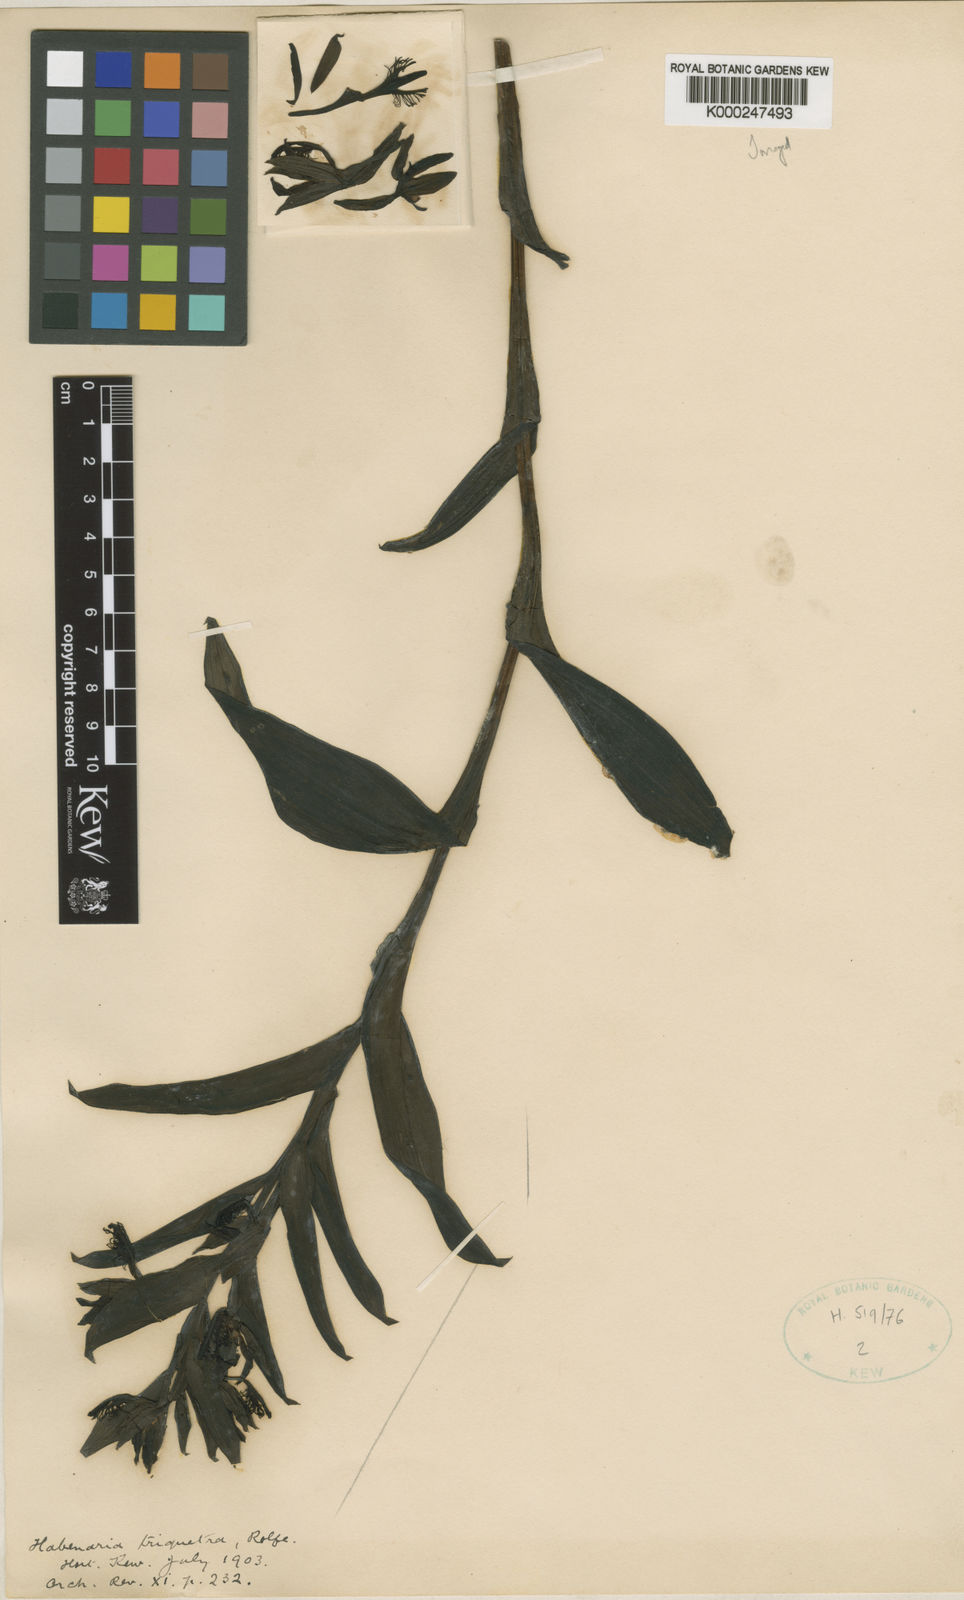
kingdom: Plantae
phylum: Tracheophyta
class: Liliopsida
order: Asparagales
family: Orchidaceae
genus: Habenaria
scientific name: Habenaria triquetra
